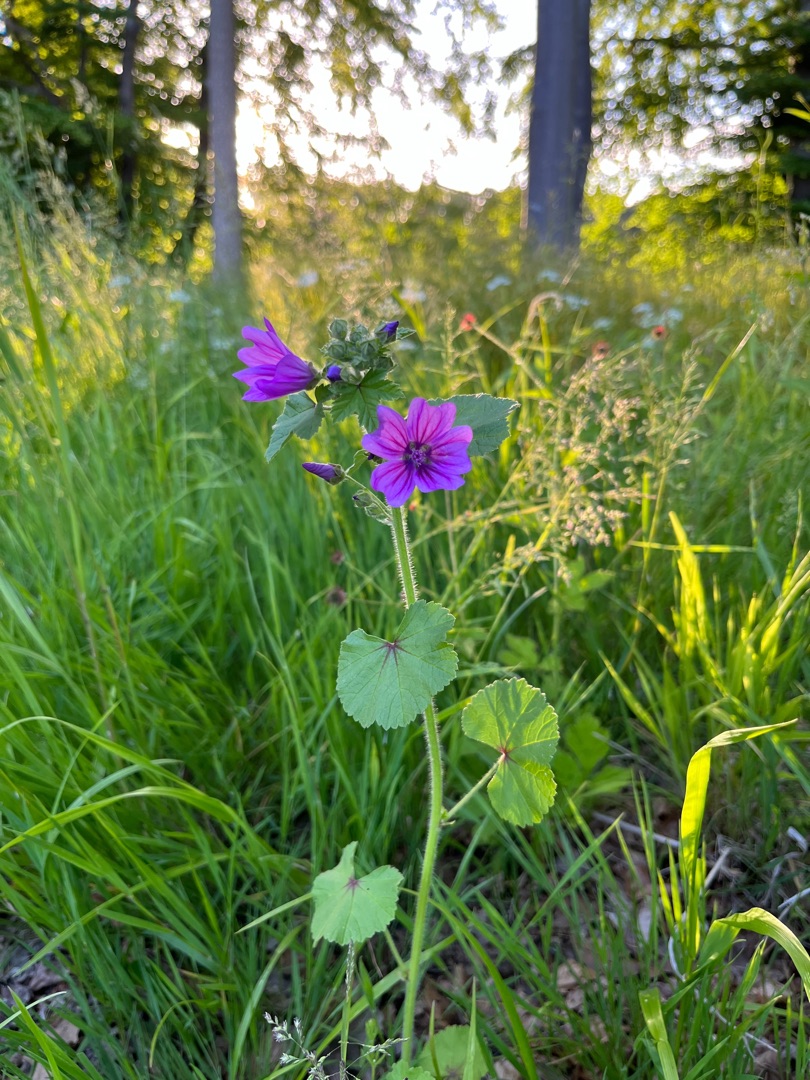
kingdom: Plantae
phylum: Tracheophyta
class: Magnoliopsida
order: Malvales
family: Malvaceae
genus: Malva
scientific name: Malva sylvestris
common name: Almindelig katost
